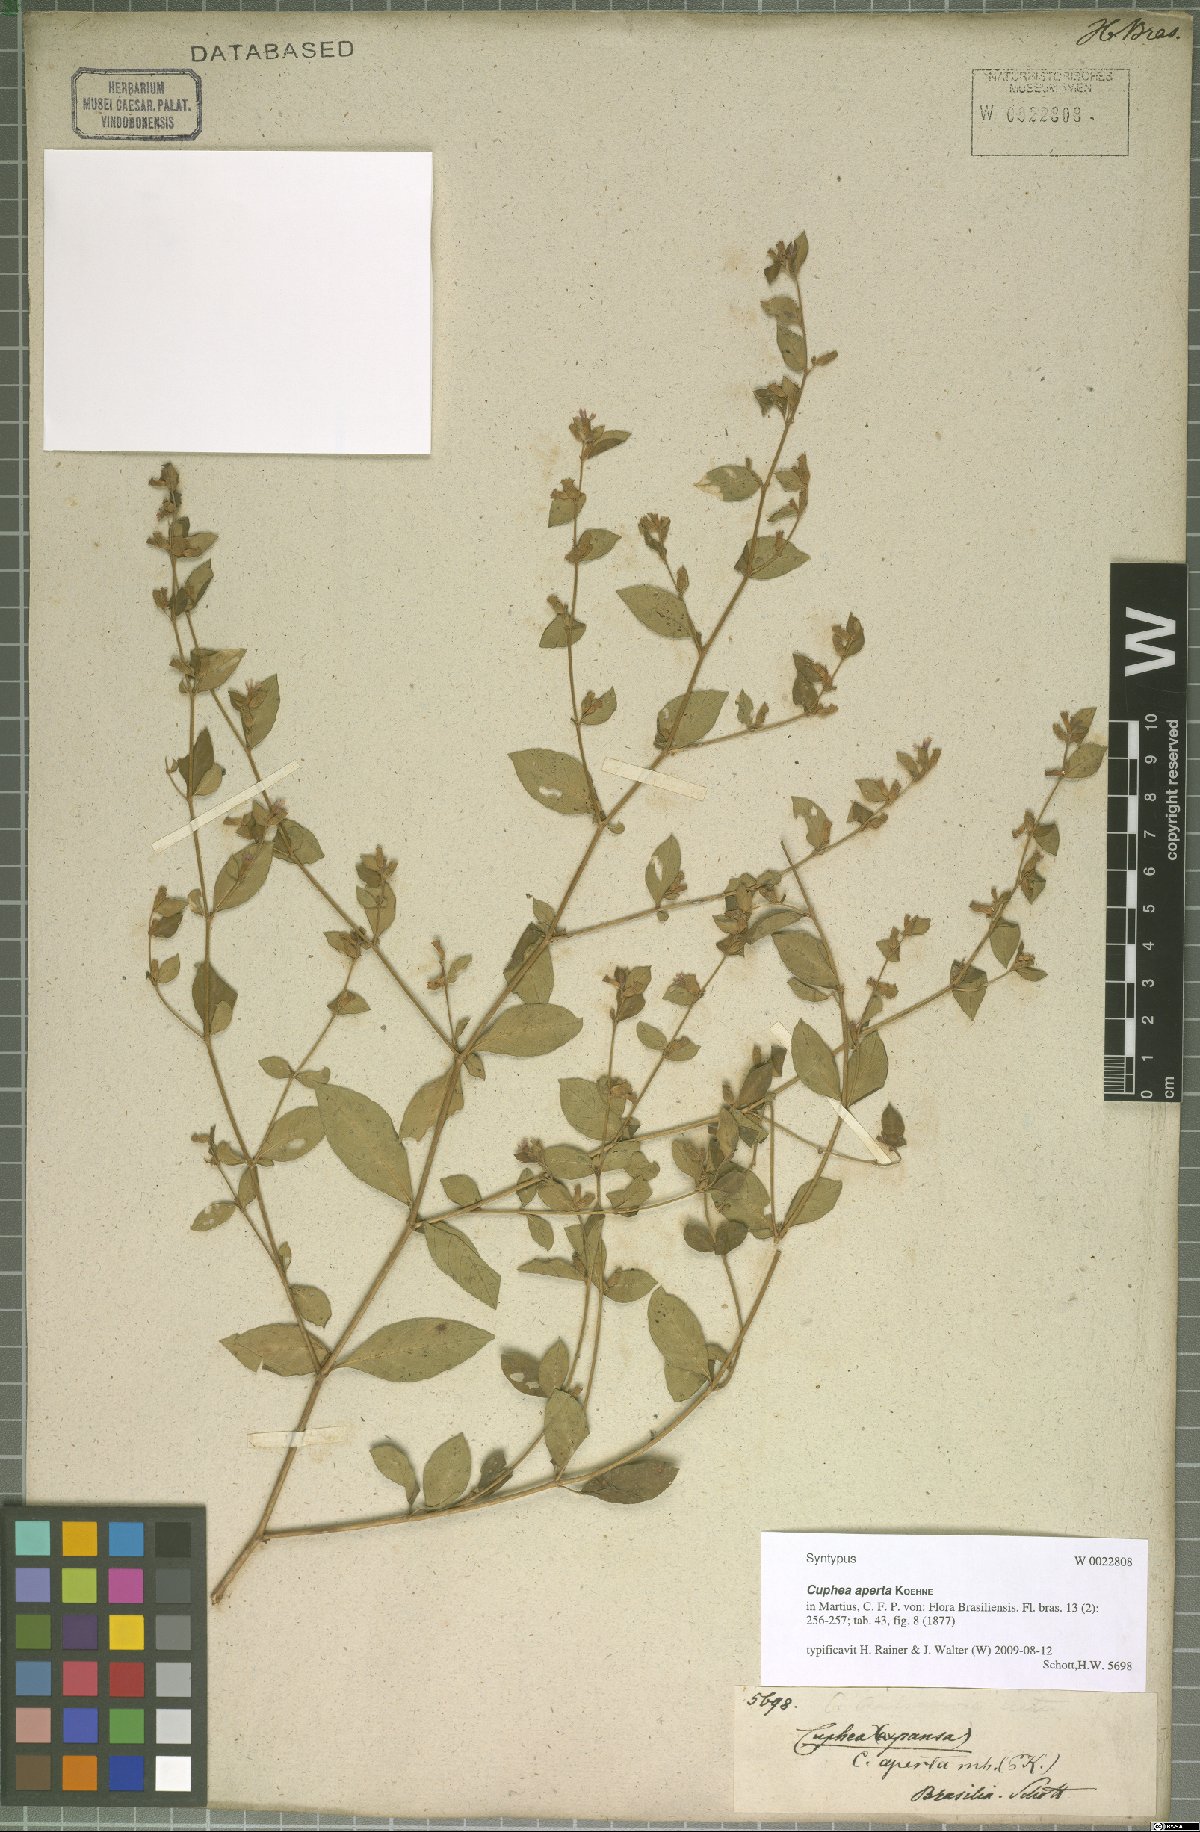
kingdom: Plantae
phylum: Tracheophyta
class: Magnoliopsida
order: Myrtales
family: Lythraceae
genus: Cuphea
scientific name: Cuphea aperta
